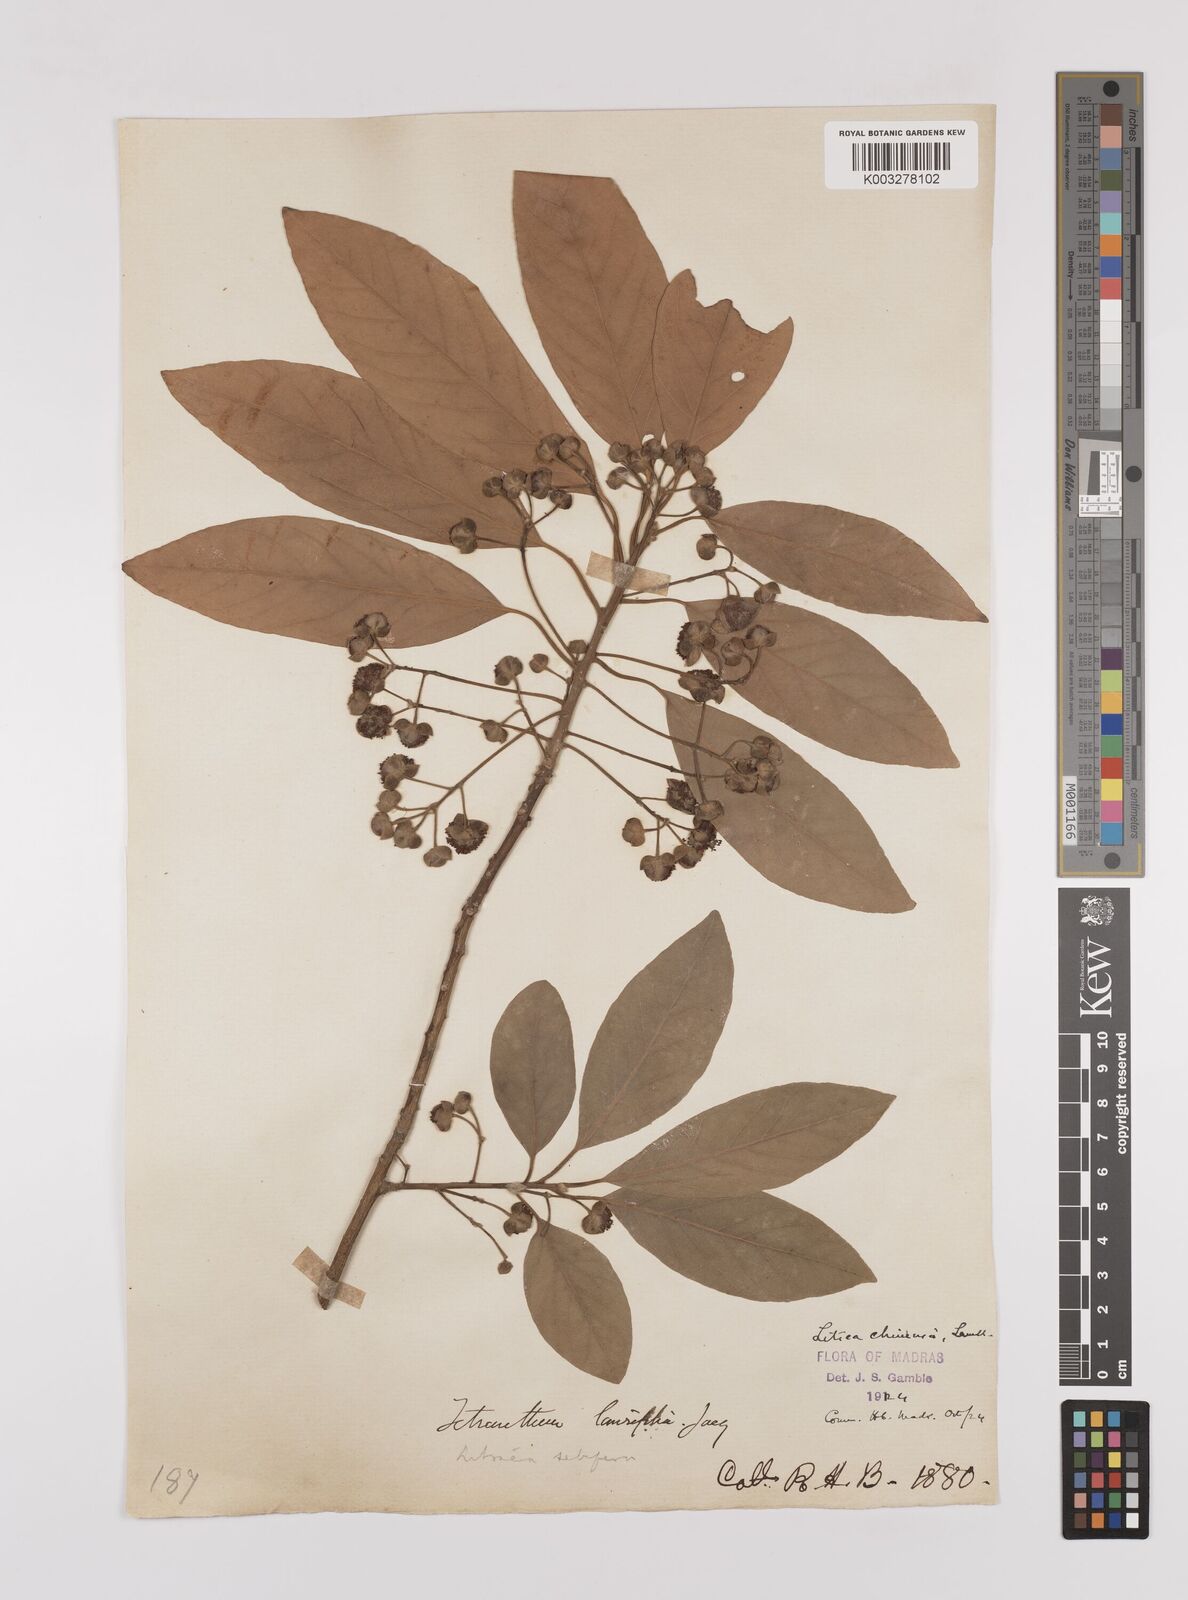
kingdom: Plantae
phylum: Tracheophyta
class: Magnoliopsida
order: Laurales
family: Lauraceae
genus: Litsea
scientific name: Litsea
